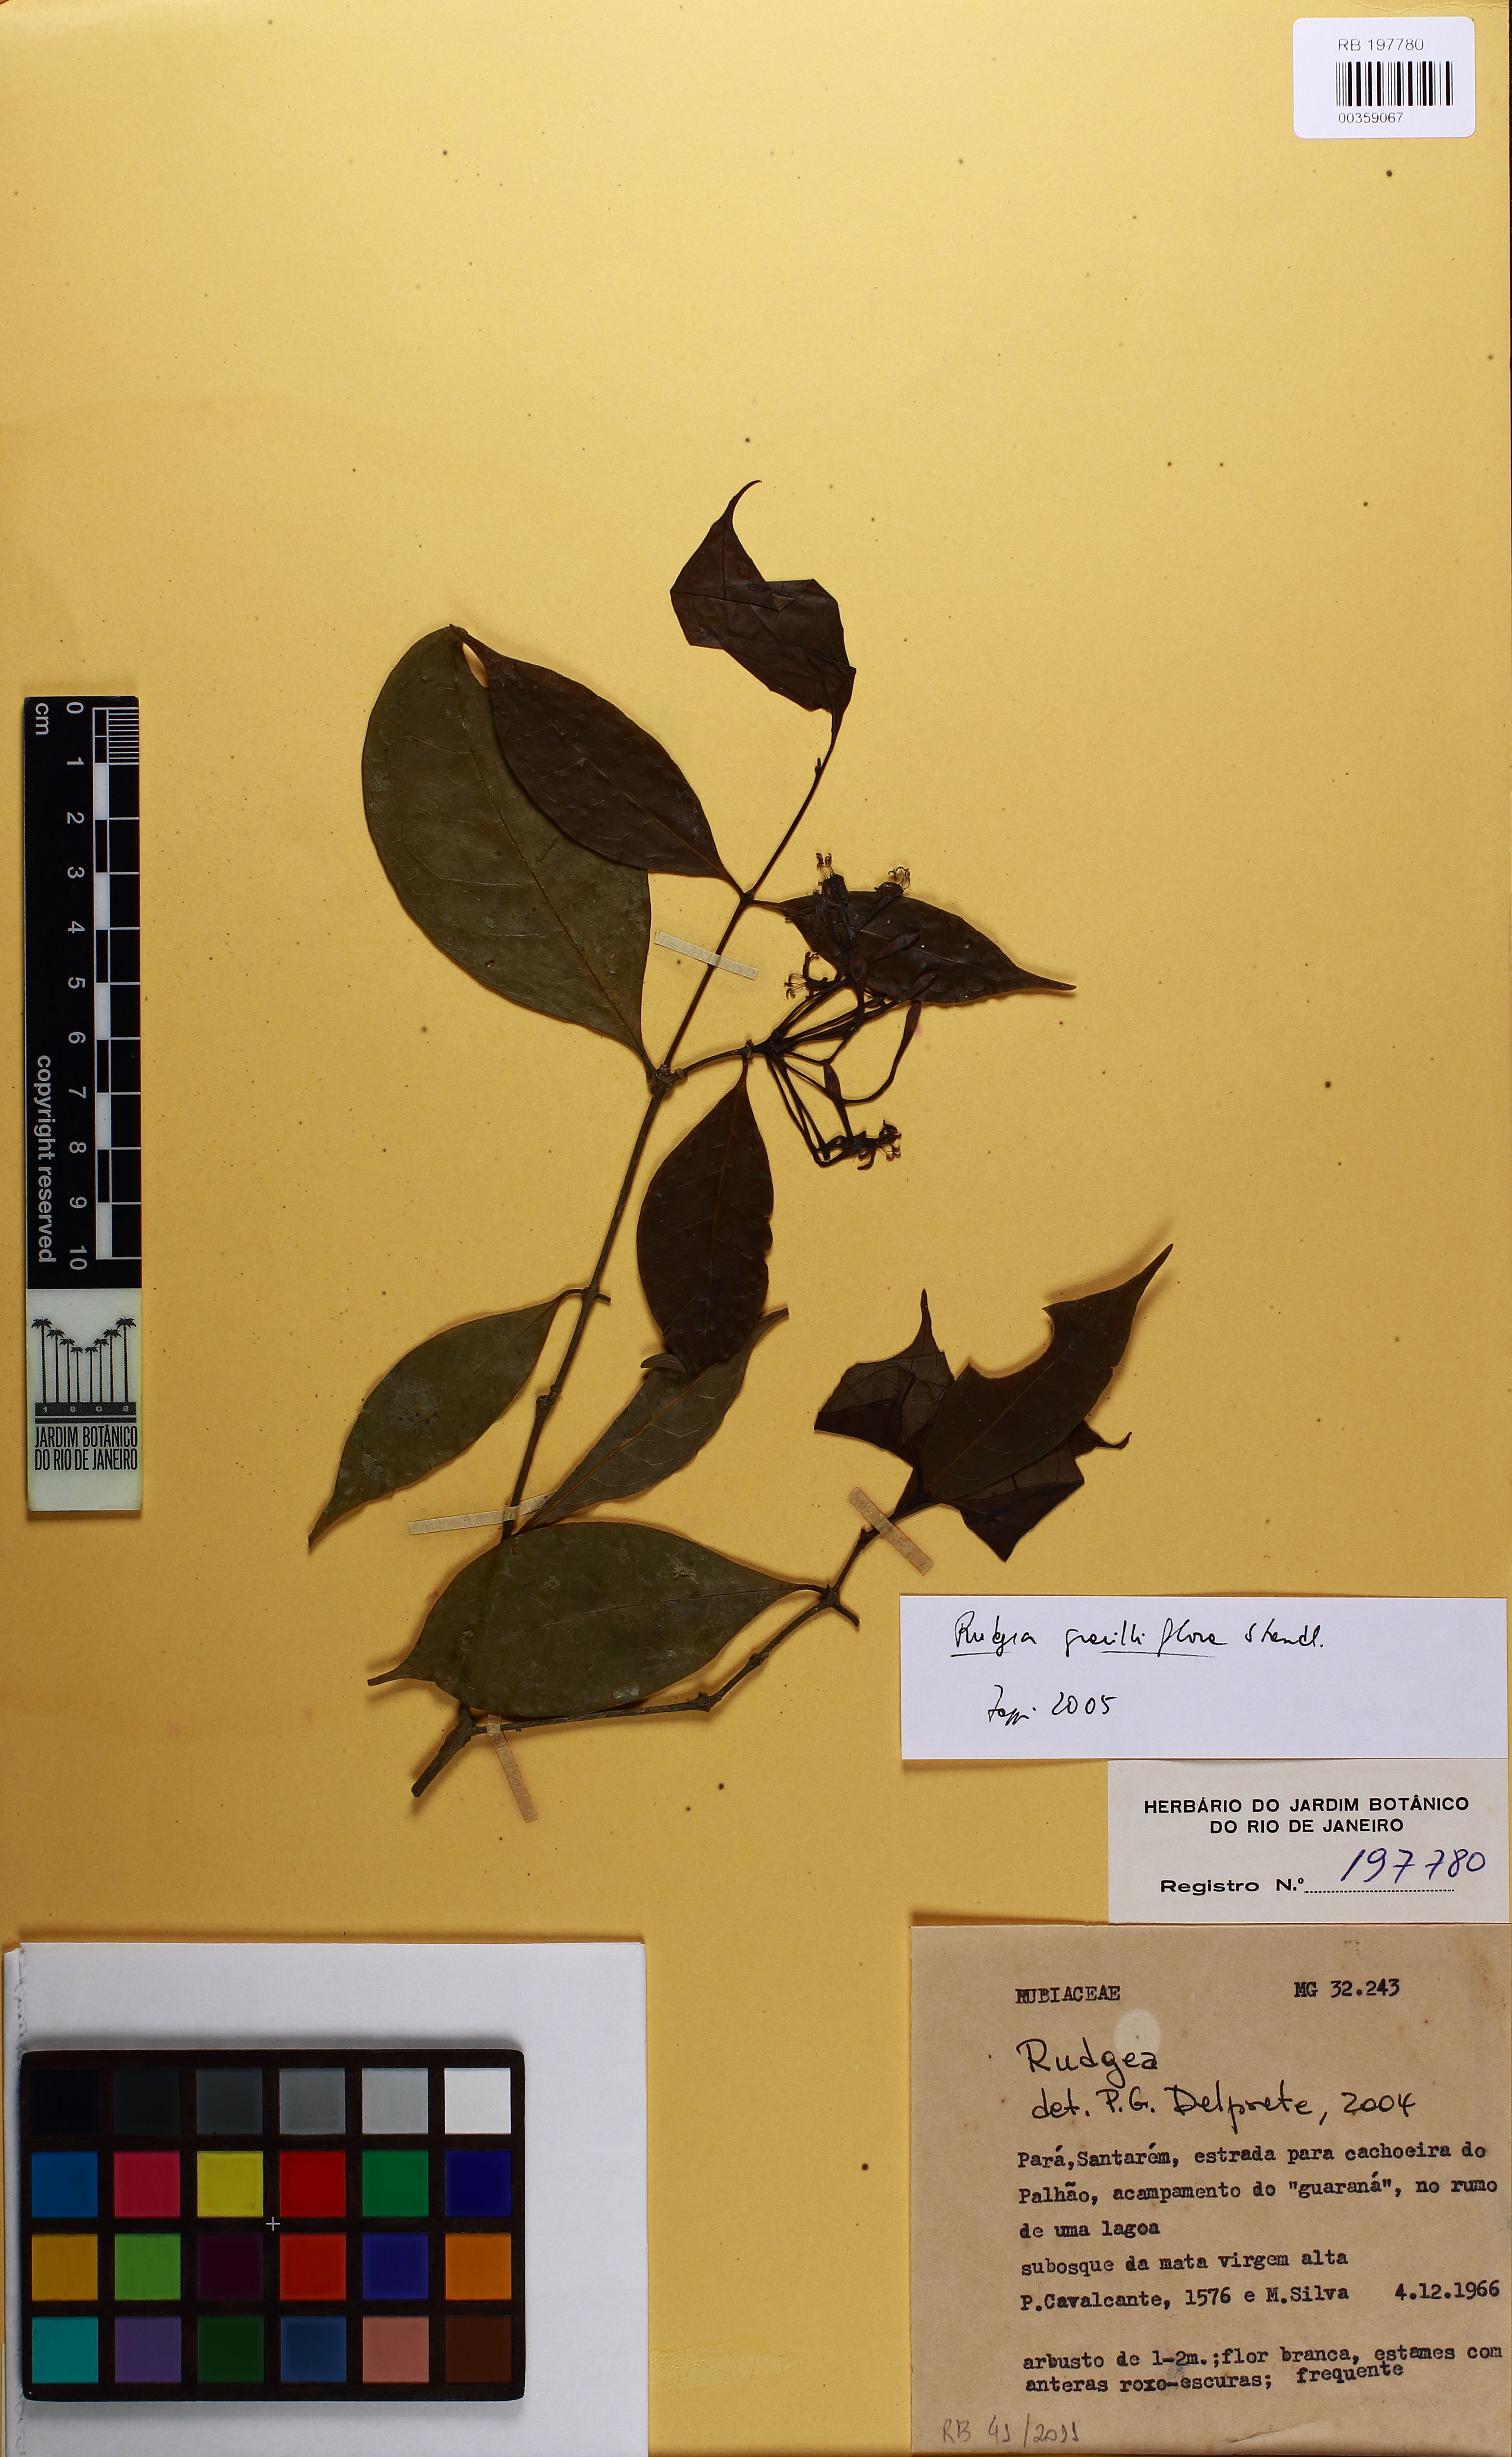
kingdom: Plantae
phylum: Tracheophyta
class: Magnoliopsida
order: Gentianales
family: Rubiaceae
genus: Rudgea
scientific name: Rudgea graciliflora
